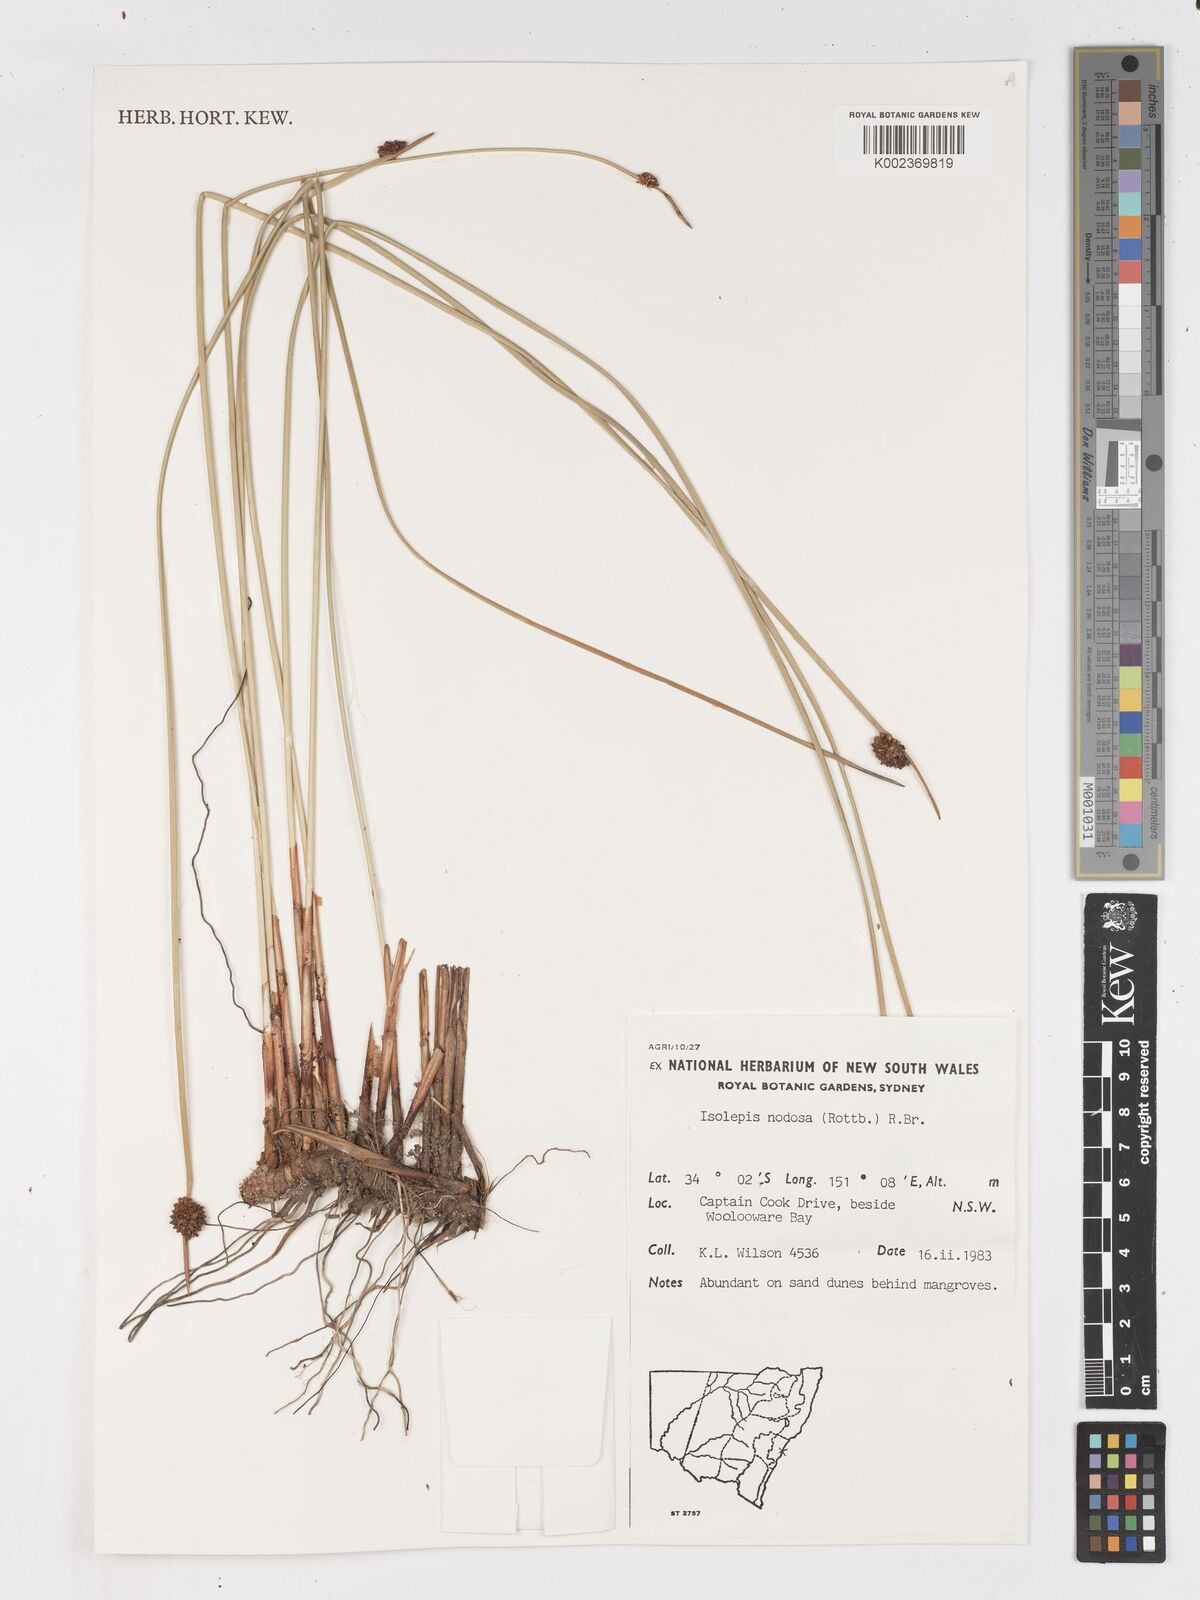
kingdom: Plantae
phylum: Tracheophyta
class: Liliopsida
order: Poales
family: Cyperaceae
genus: Ficinia
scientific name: Ficinia nodosa
